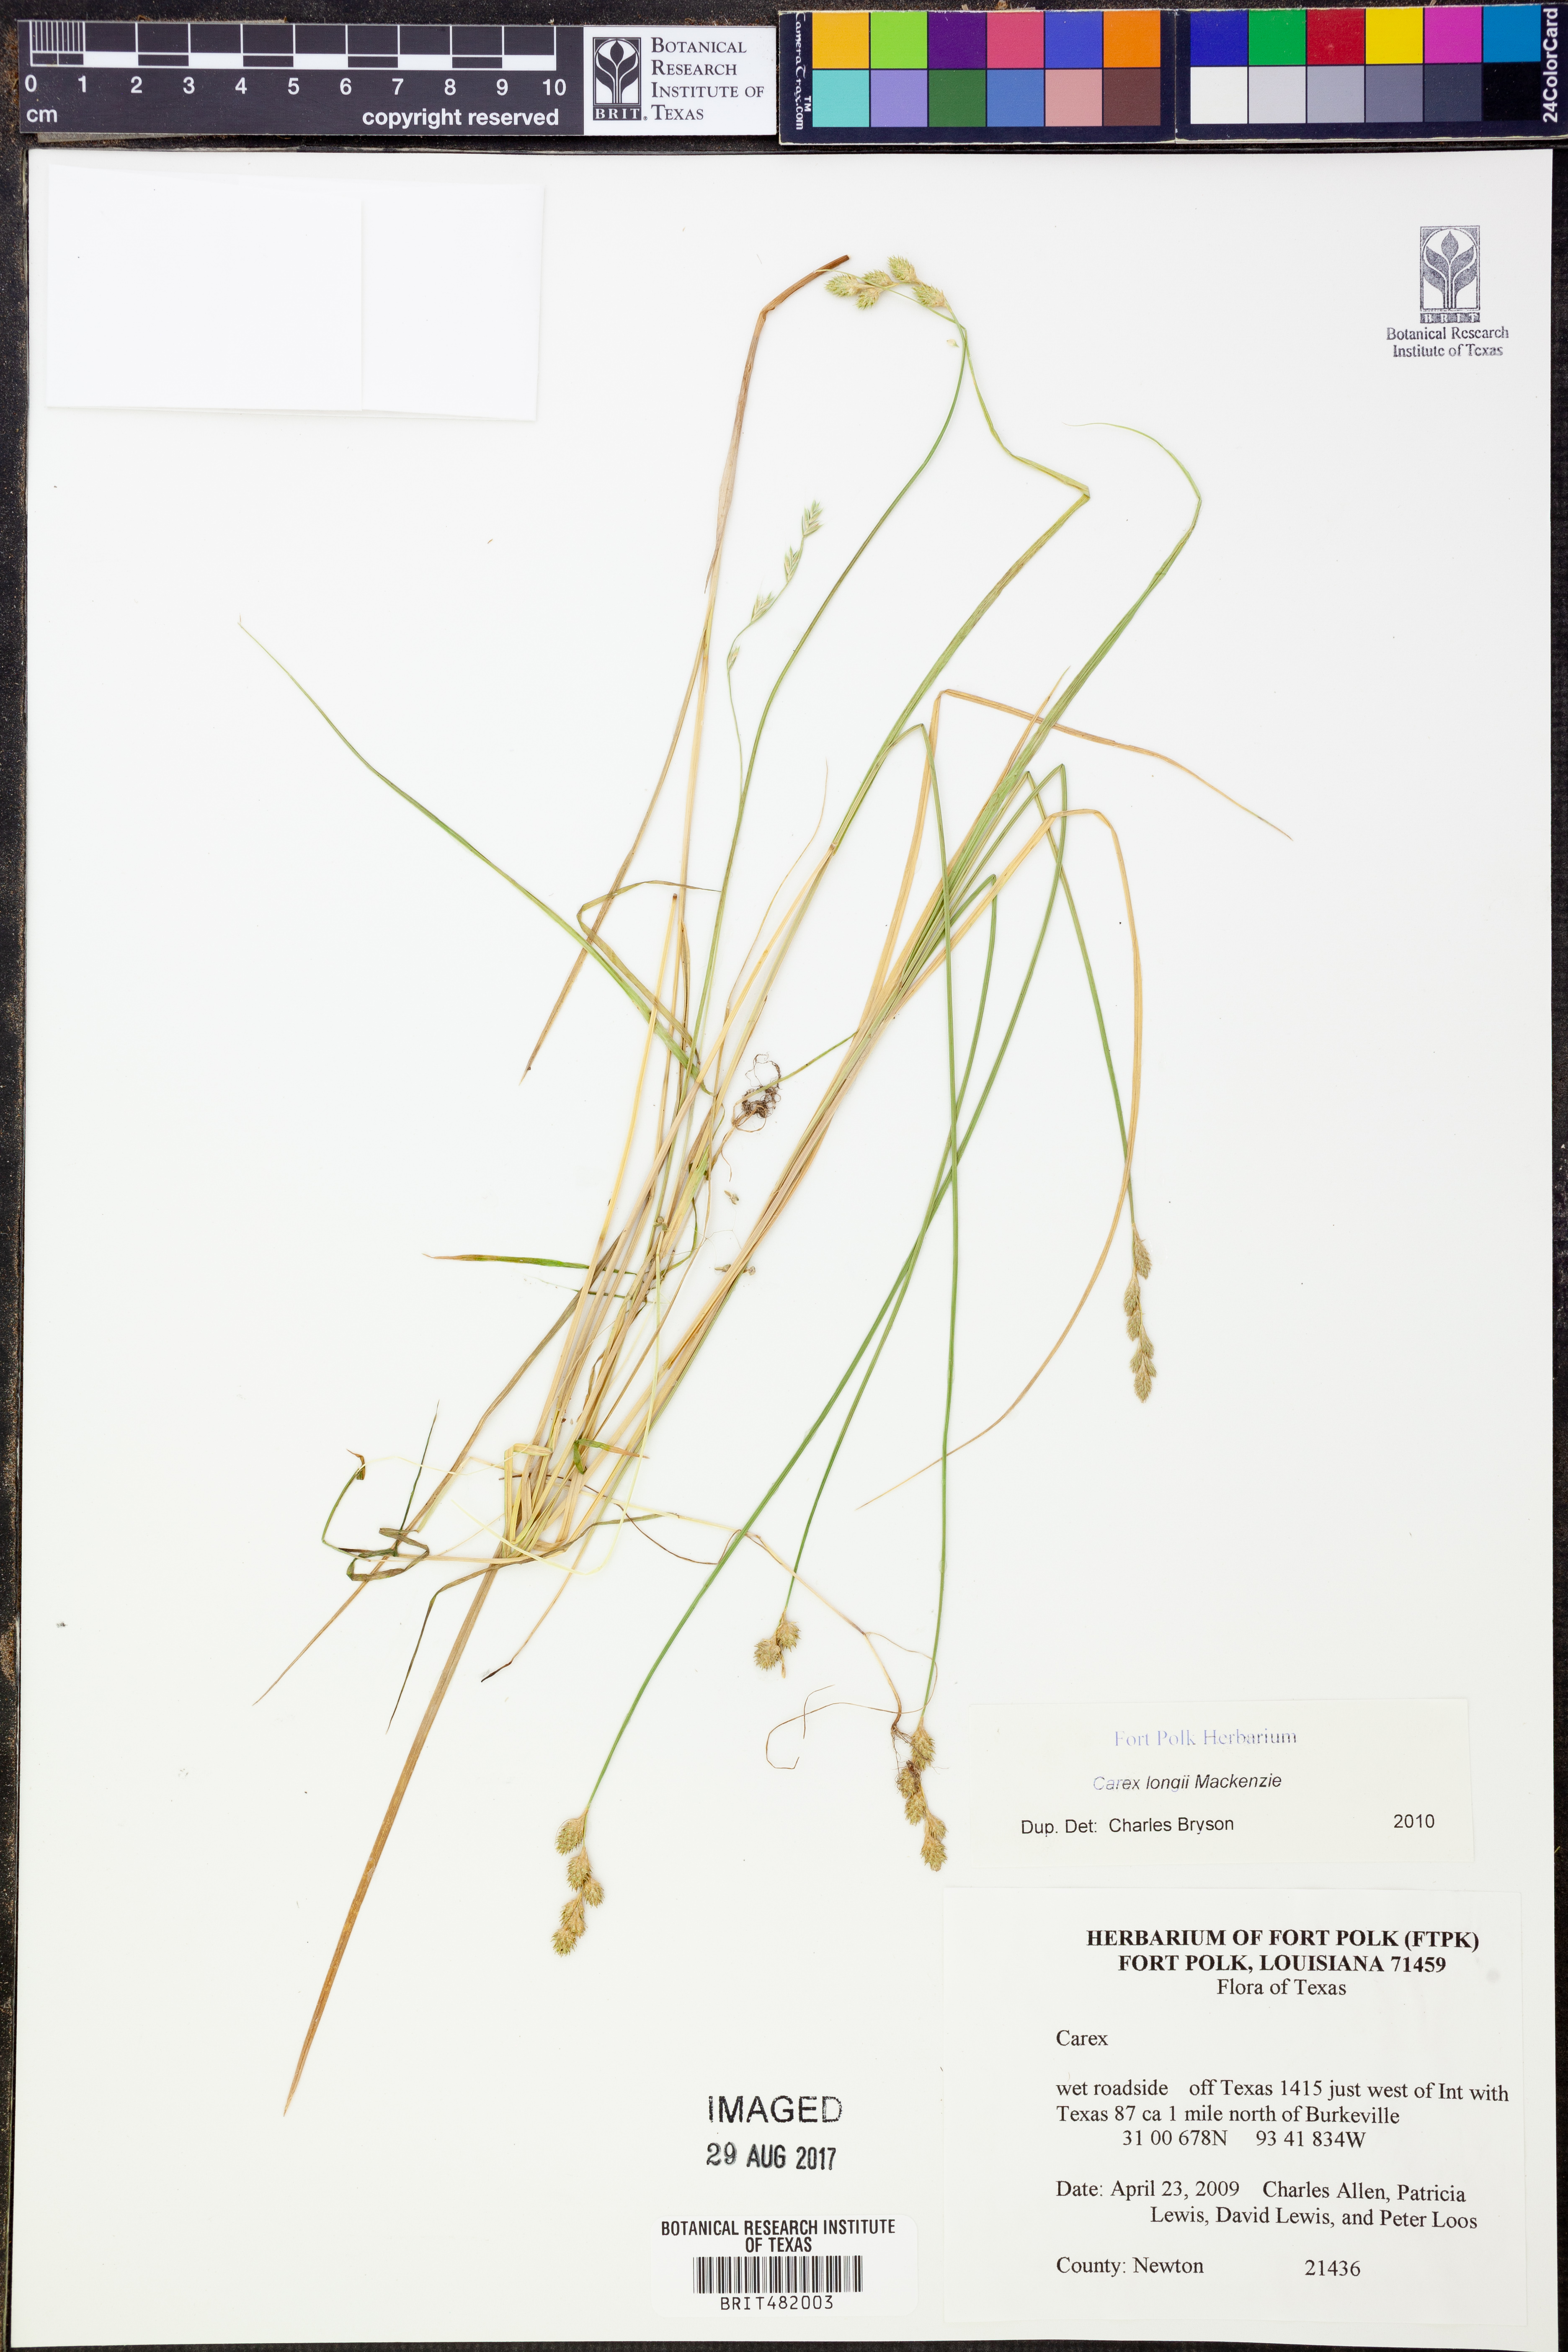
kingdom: Plantae
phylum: Tracheophyta
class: Liliopsida
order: Poales
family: Cyperaceae
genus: Carex
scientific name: Carex longii
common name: Long's sedge
